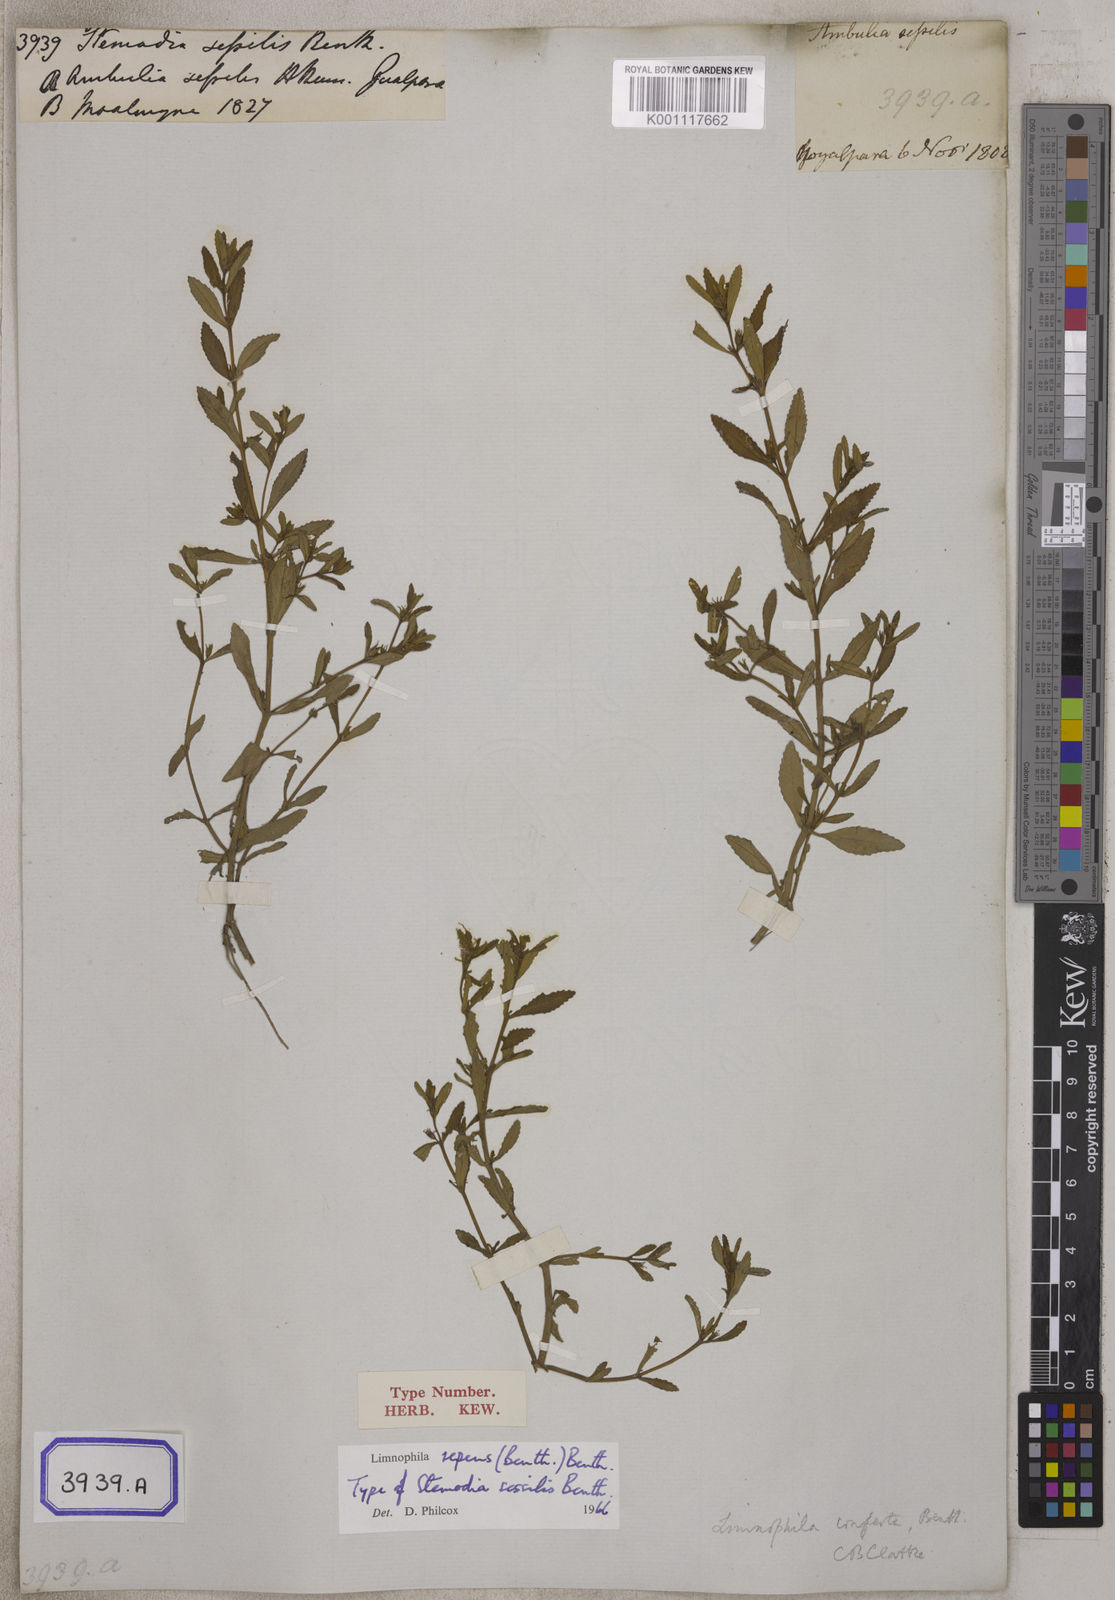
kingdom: Plantae
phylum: Tracheophyta
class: Magnoliopsida
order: Lamiales
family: Plantaginaceae
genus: Stemodia
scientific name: Stemodia
